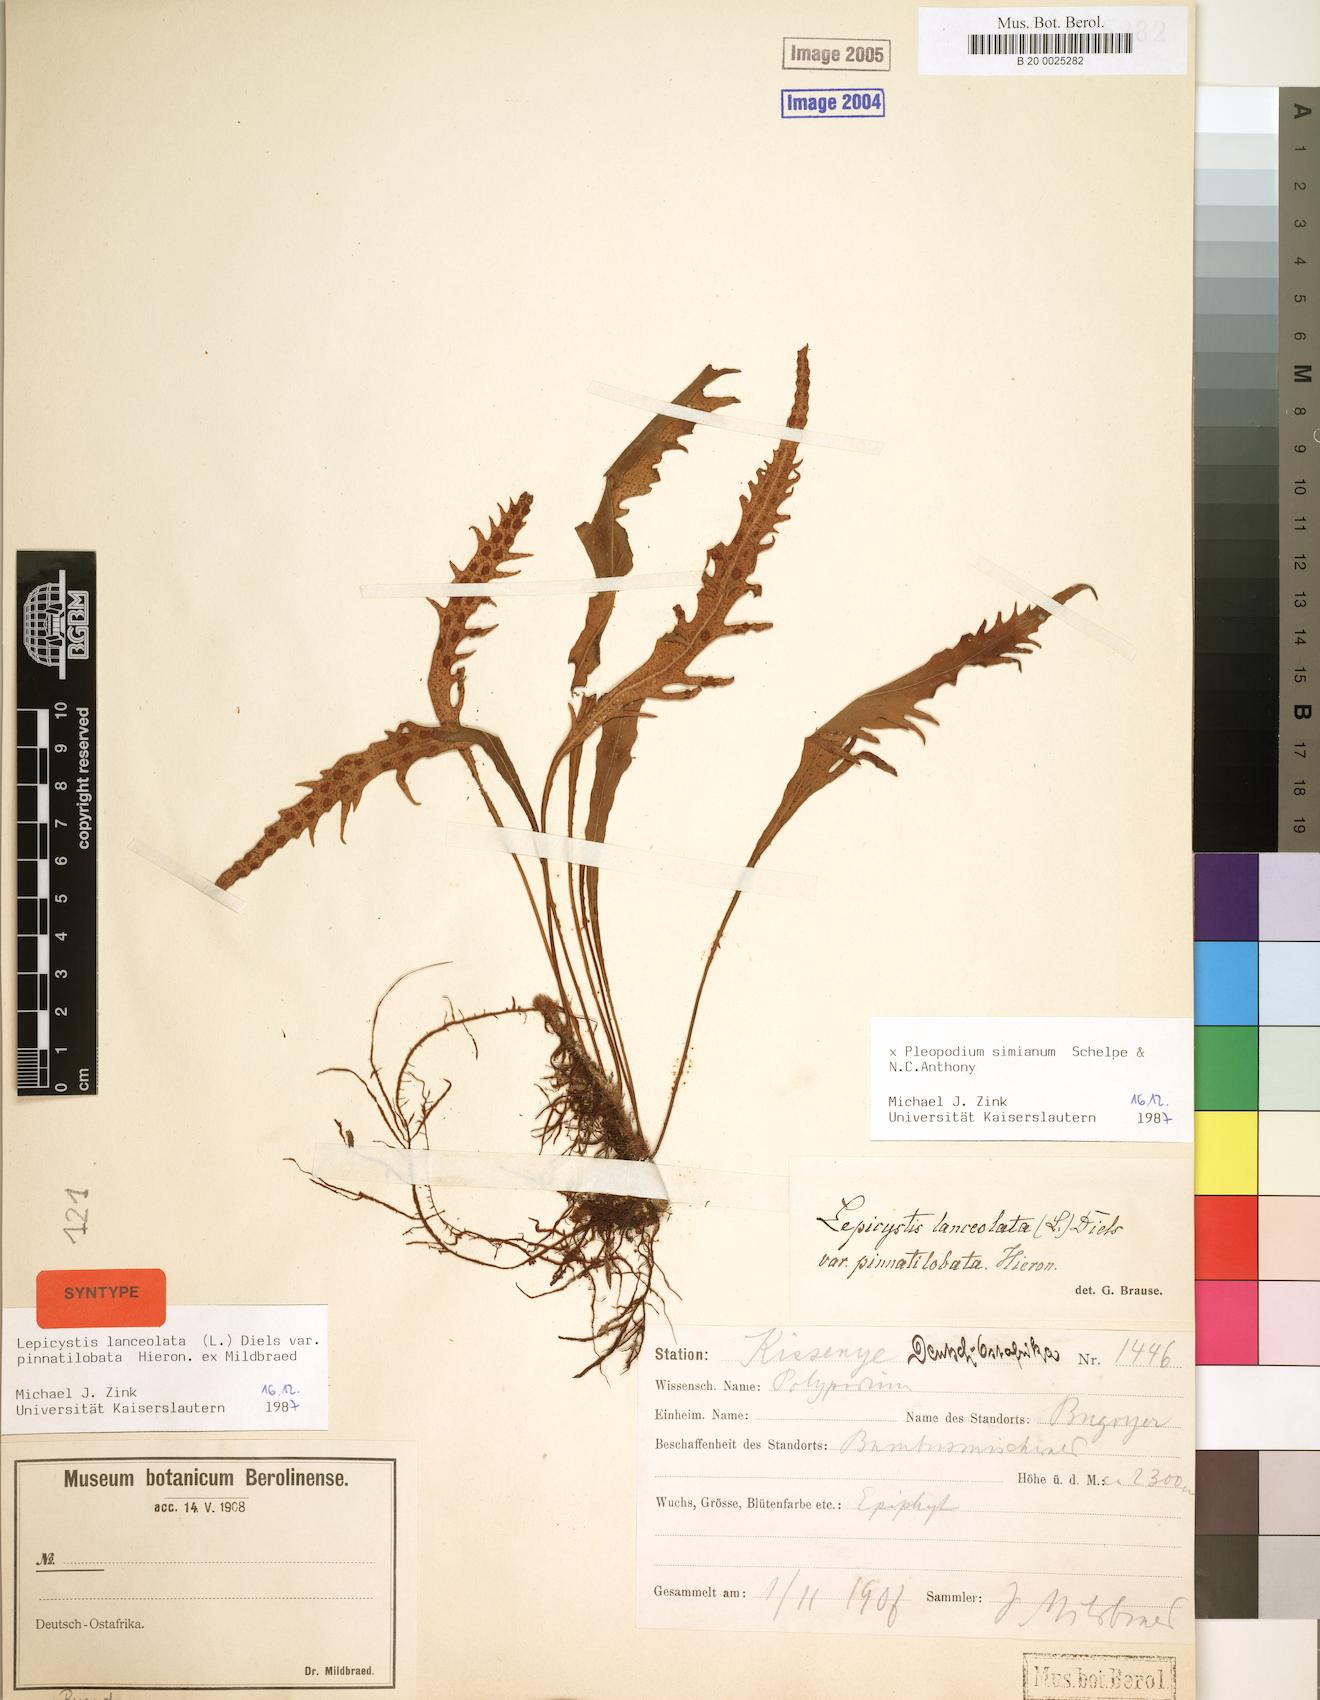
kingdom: Plantae
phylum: Tracheophyta
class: Polypodiopsida
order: Polypodiales
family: Polypodiaceae
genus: Pleopeltis
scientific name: Pleopeltis simiana
